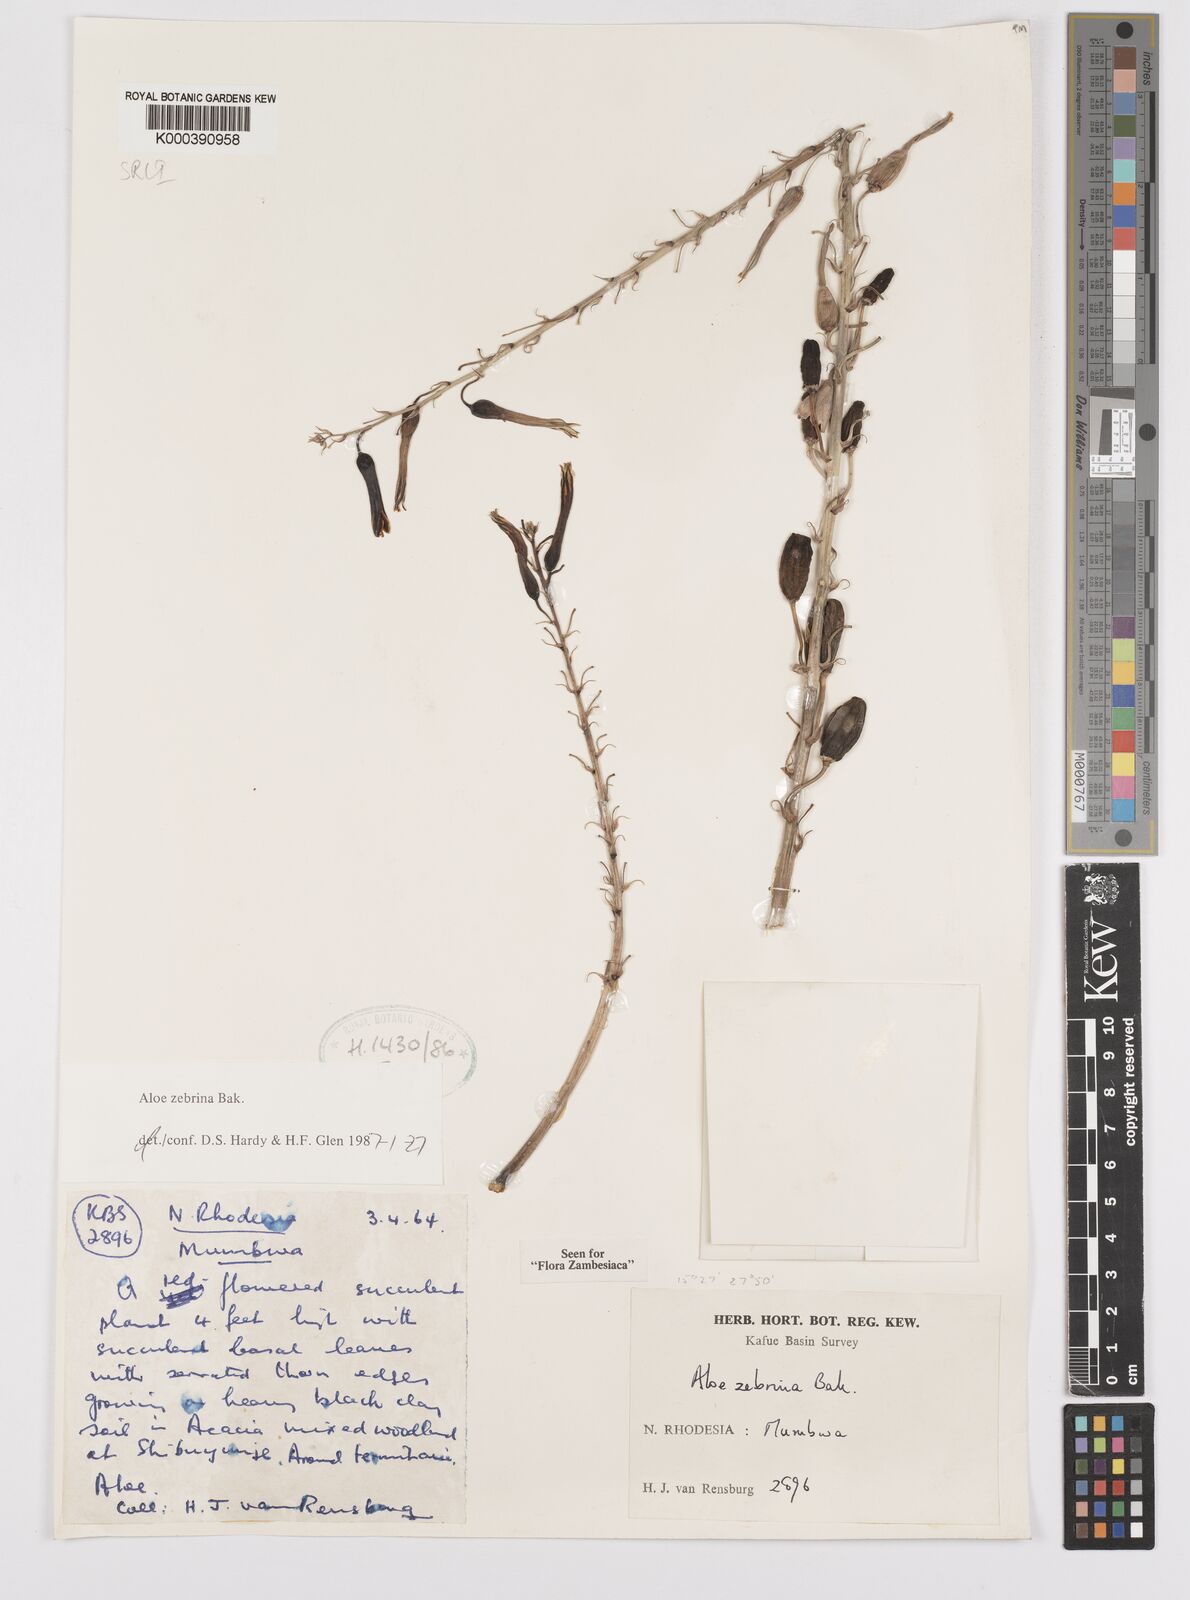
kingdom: Plantae
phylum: Tracheophyta
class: Liliopsida
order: Asparagales
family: Asphodelaceae
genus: Aloe
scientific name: Aloe zebrina
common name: Zebra-leaf aloe
